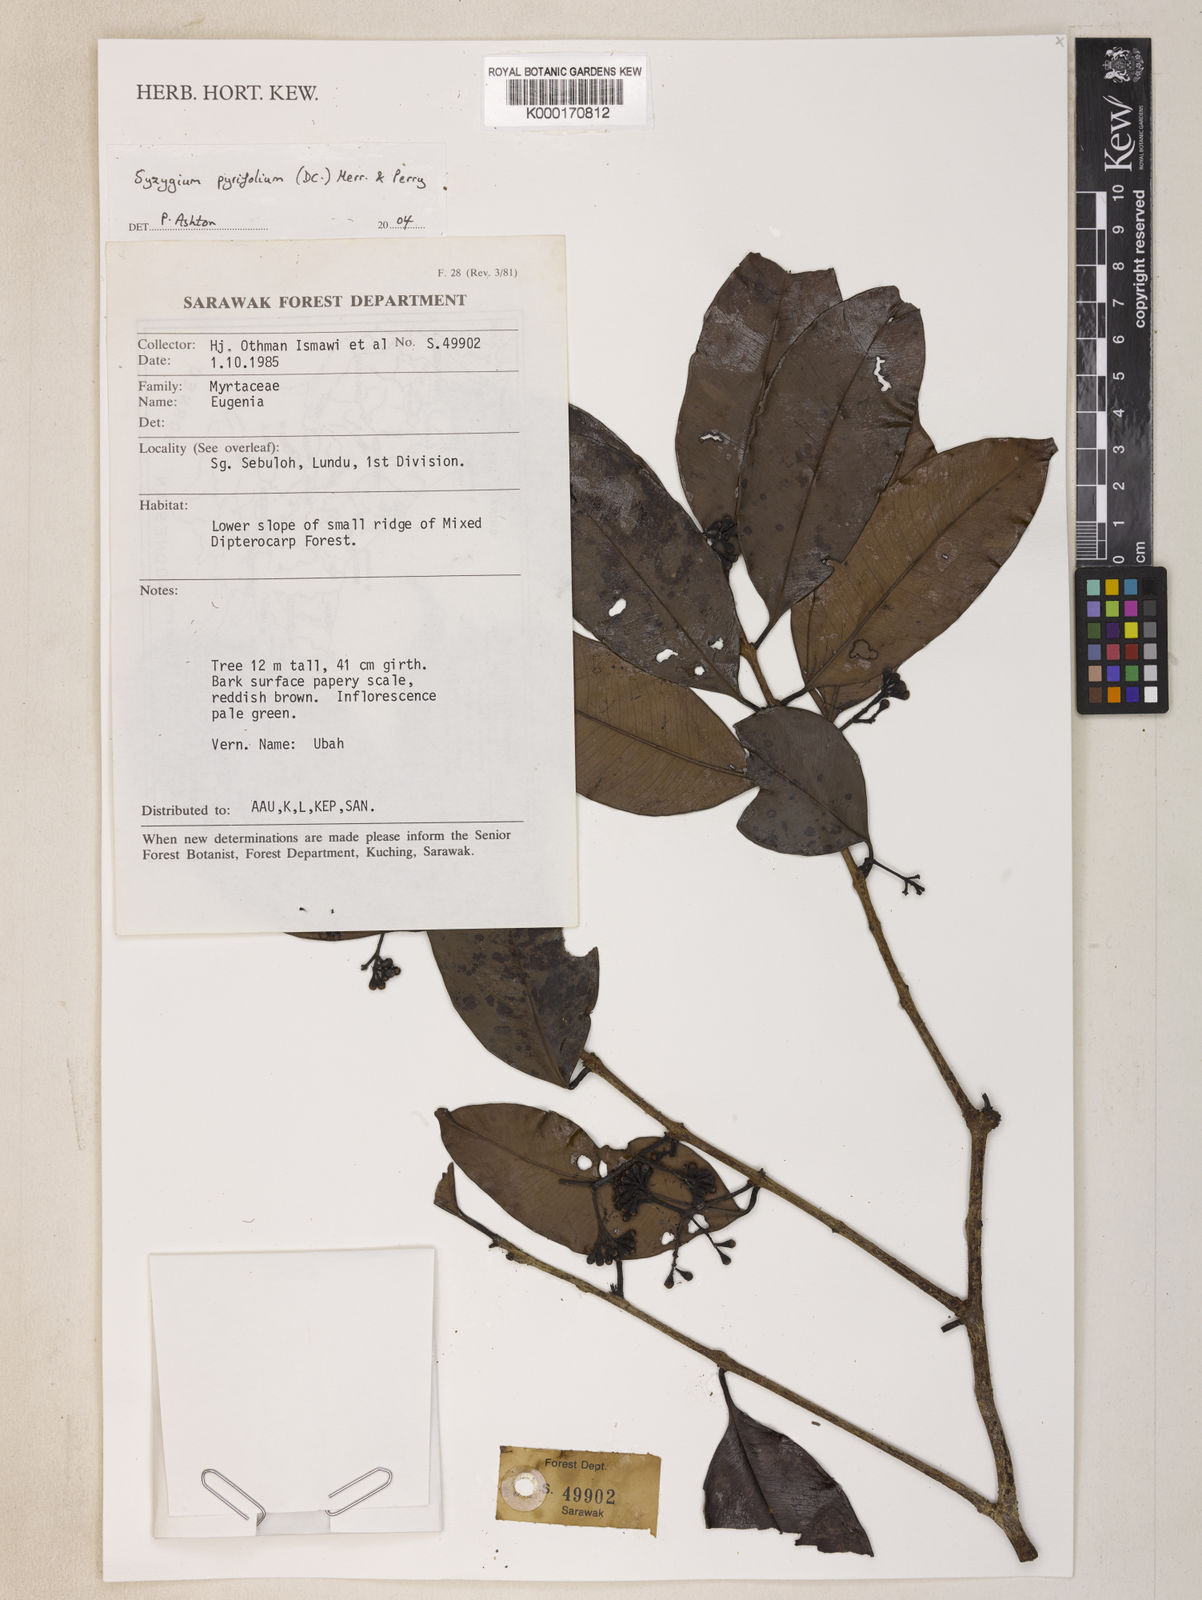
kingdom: Plantae
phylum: Tracheophyta
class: Magnoliopsida
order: Myrtales
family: Myrtaceae
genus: Syzygium
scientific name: Syzygium
